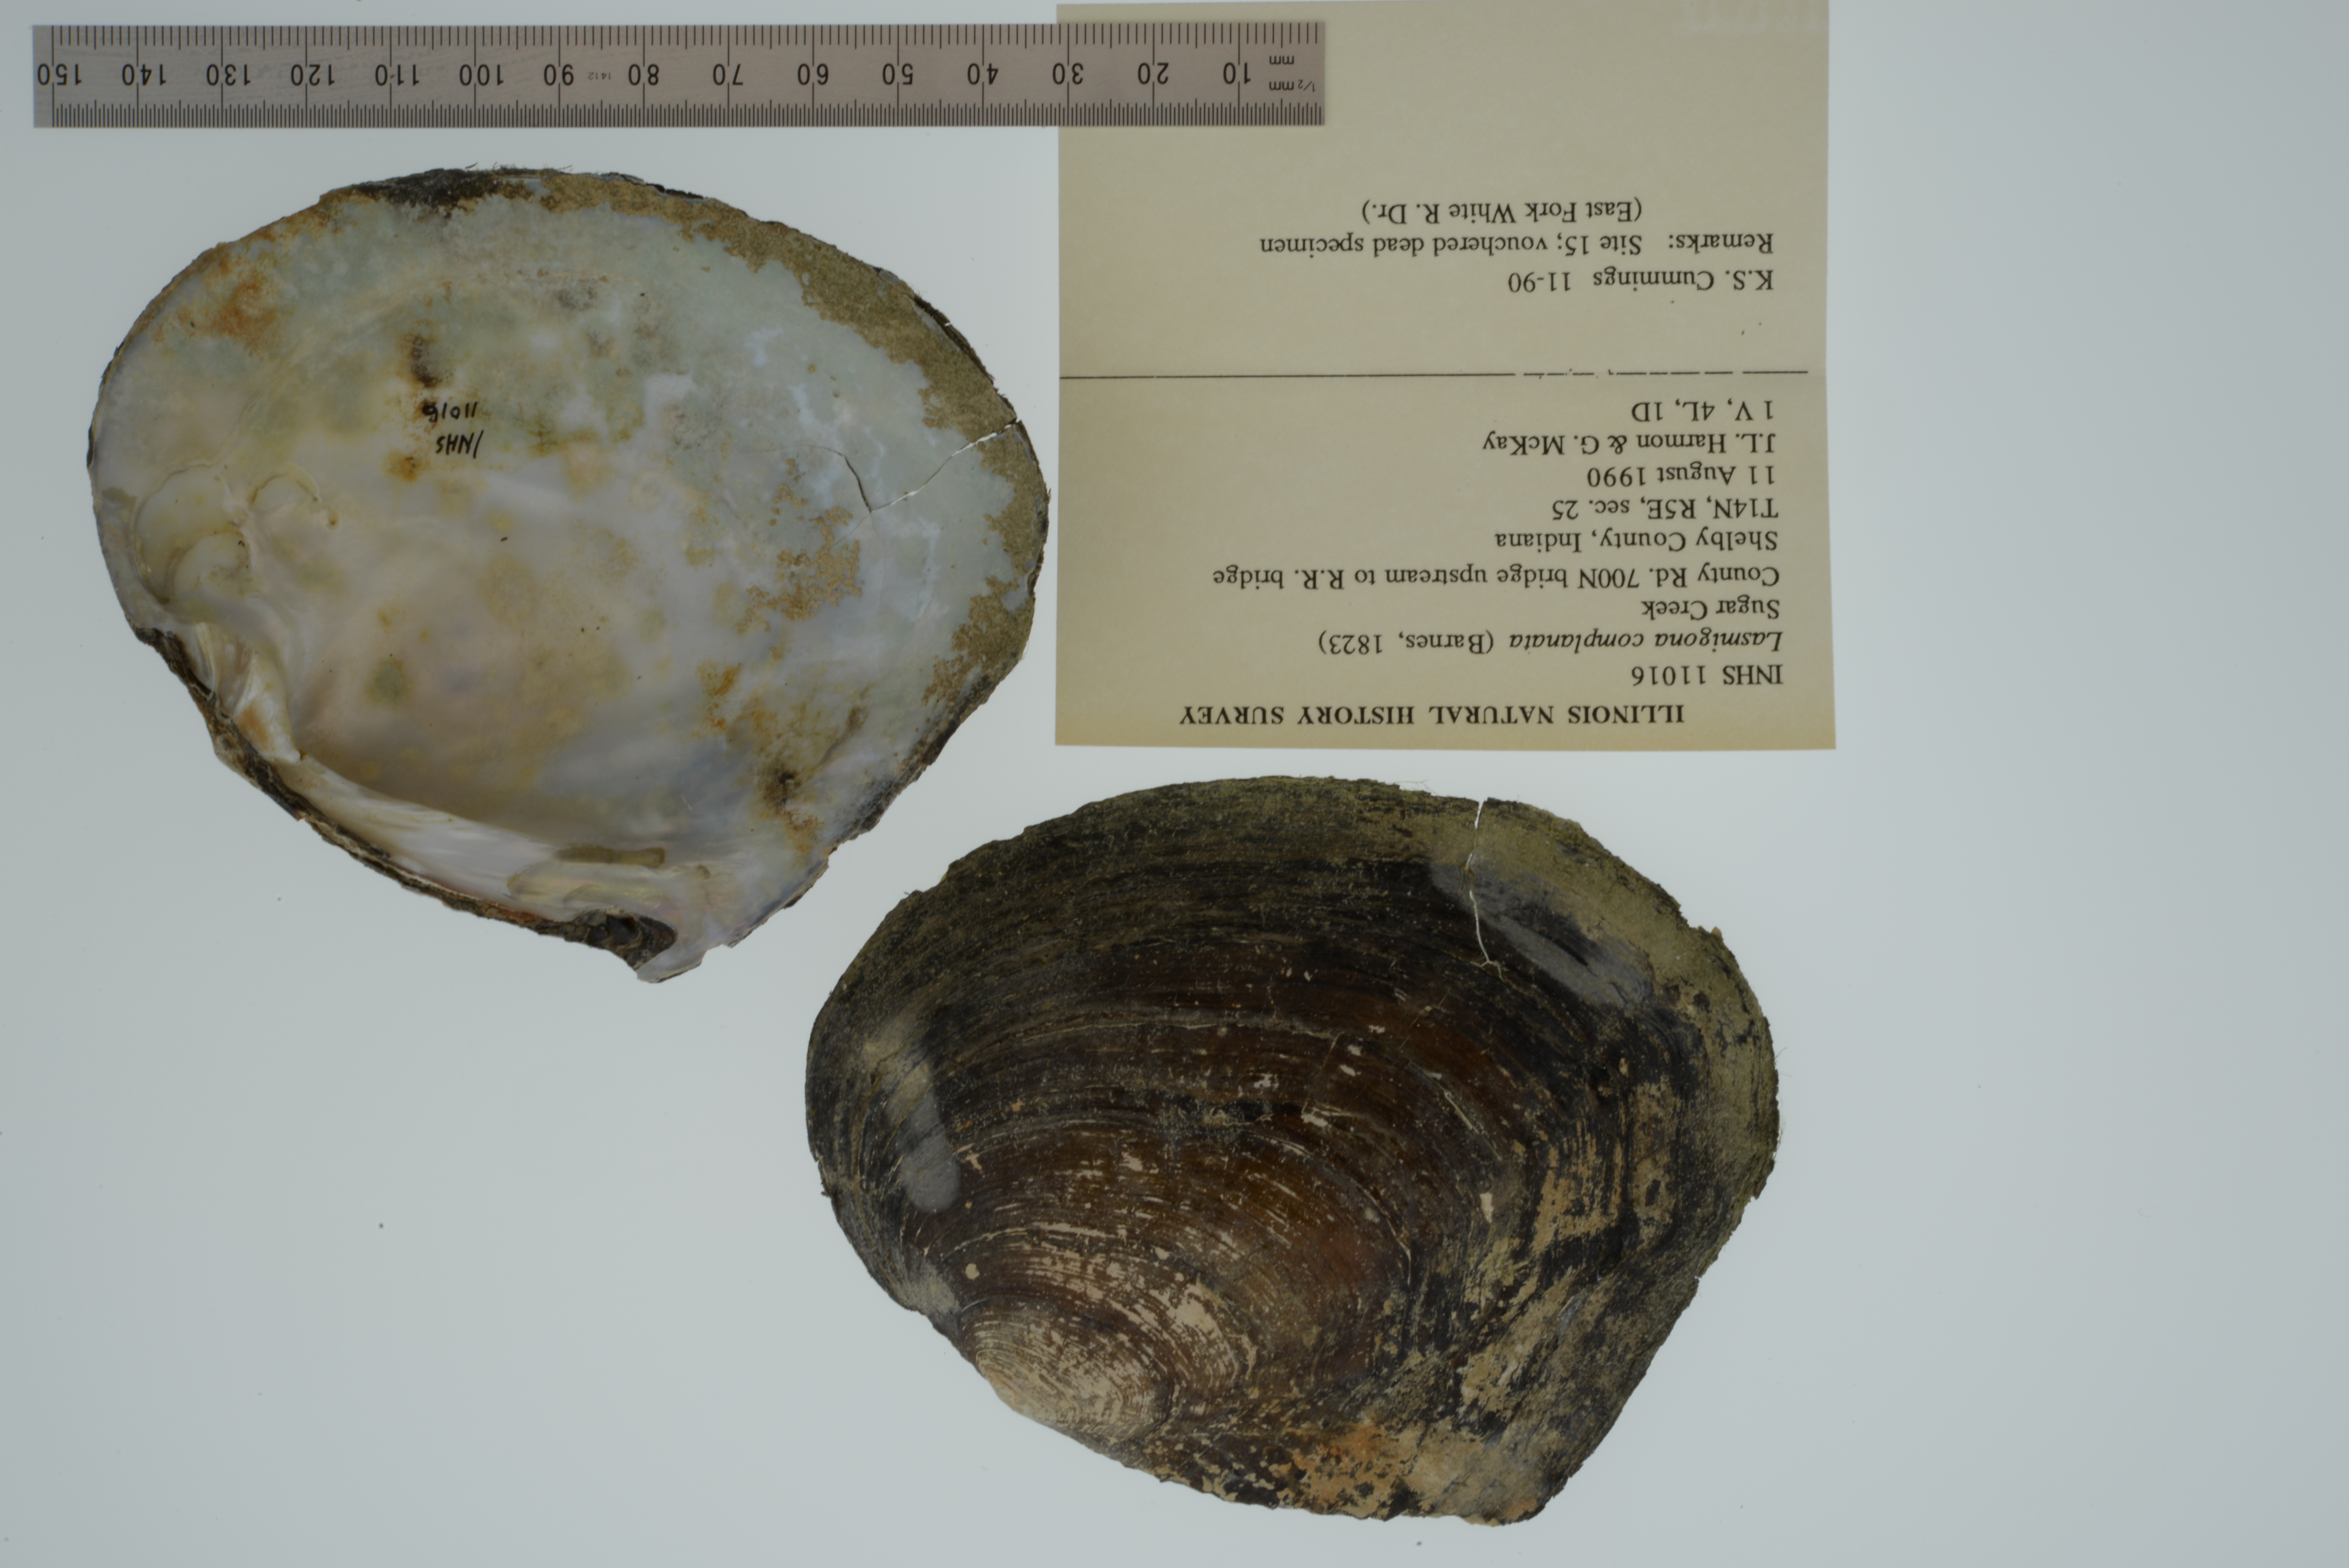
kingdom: Animalia
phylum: Mollusca
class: Bivalvia
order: Unionida
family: Unionidae
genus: Lasmigona
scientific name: Lasmigona complanata
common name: White heelsplitter
